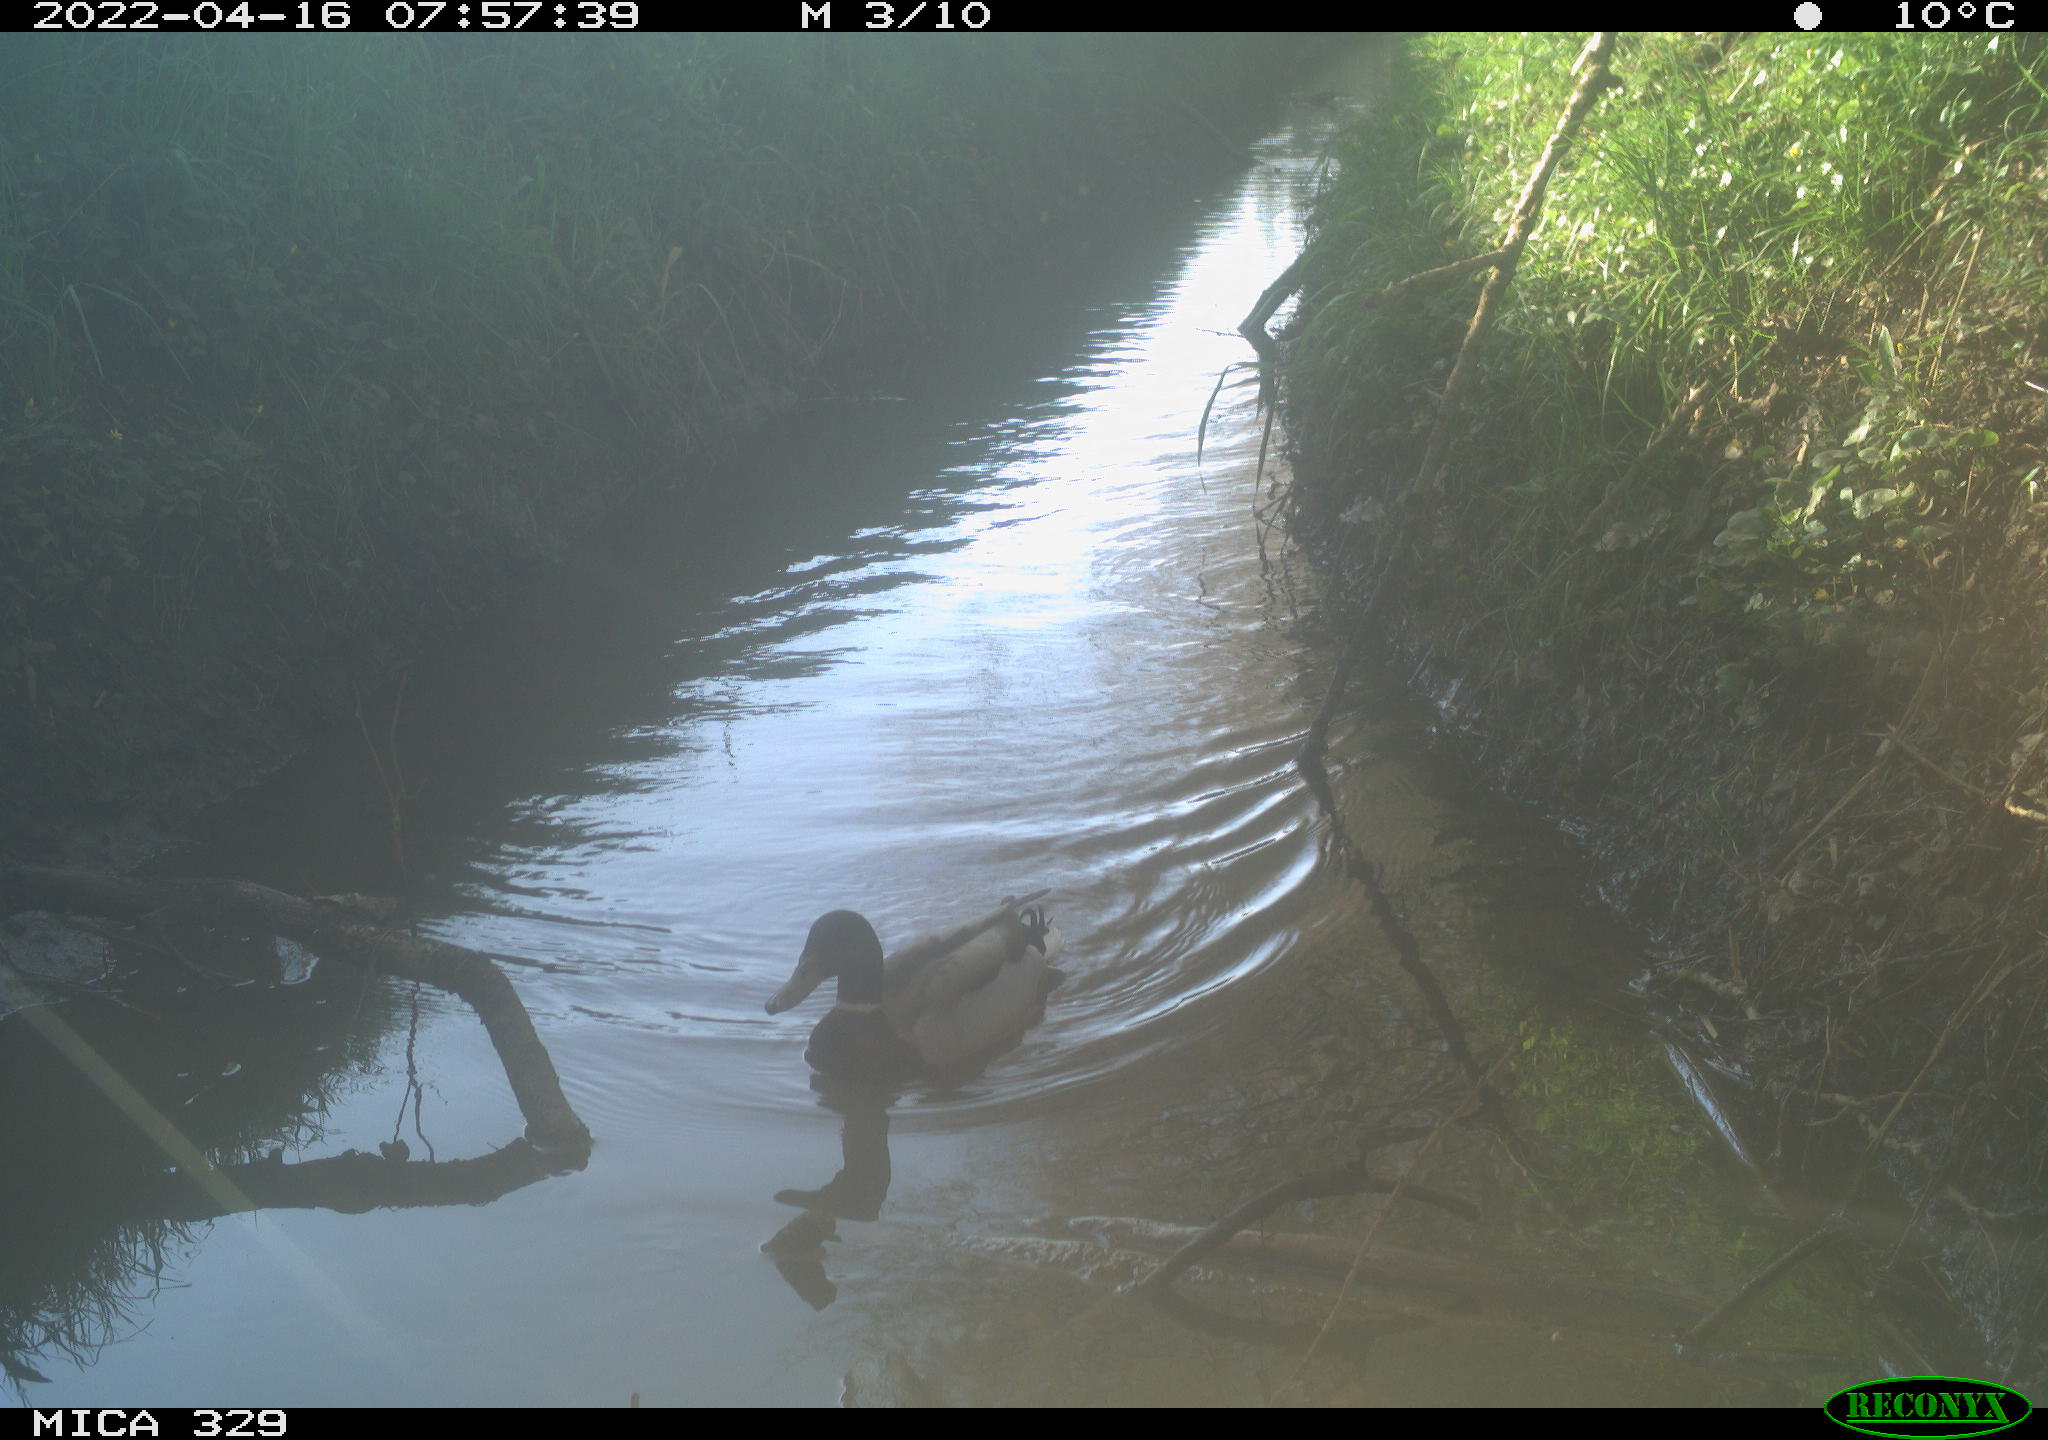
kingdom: Animalia
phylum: Chordata
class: Aves
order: Anseriformes
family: Anatidae
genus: Anas
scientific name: Anas platyrhynchos
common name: Mallard
